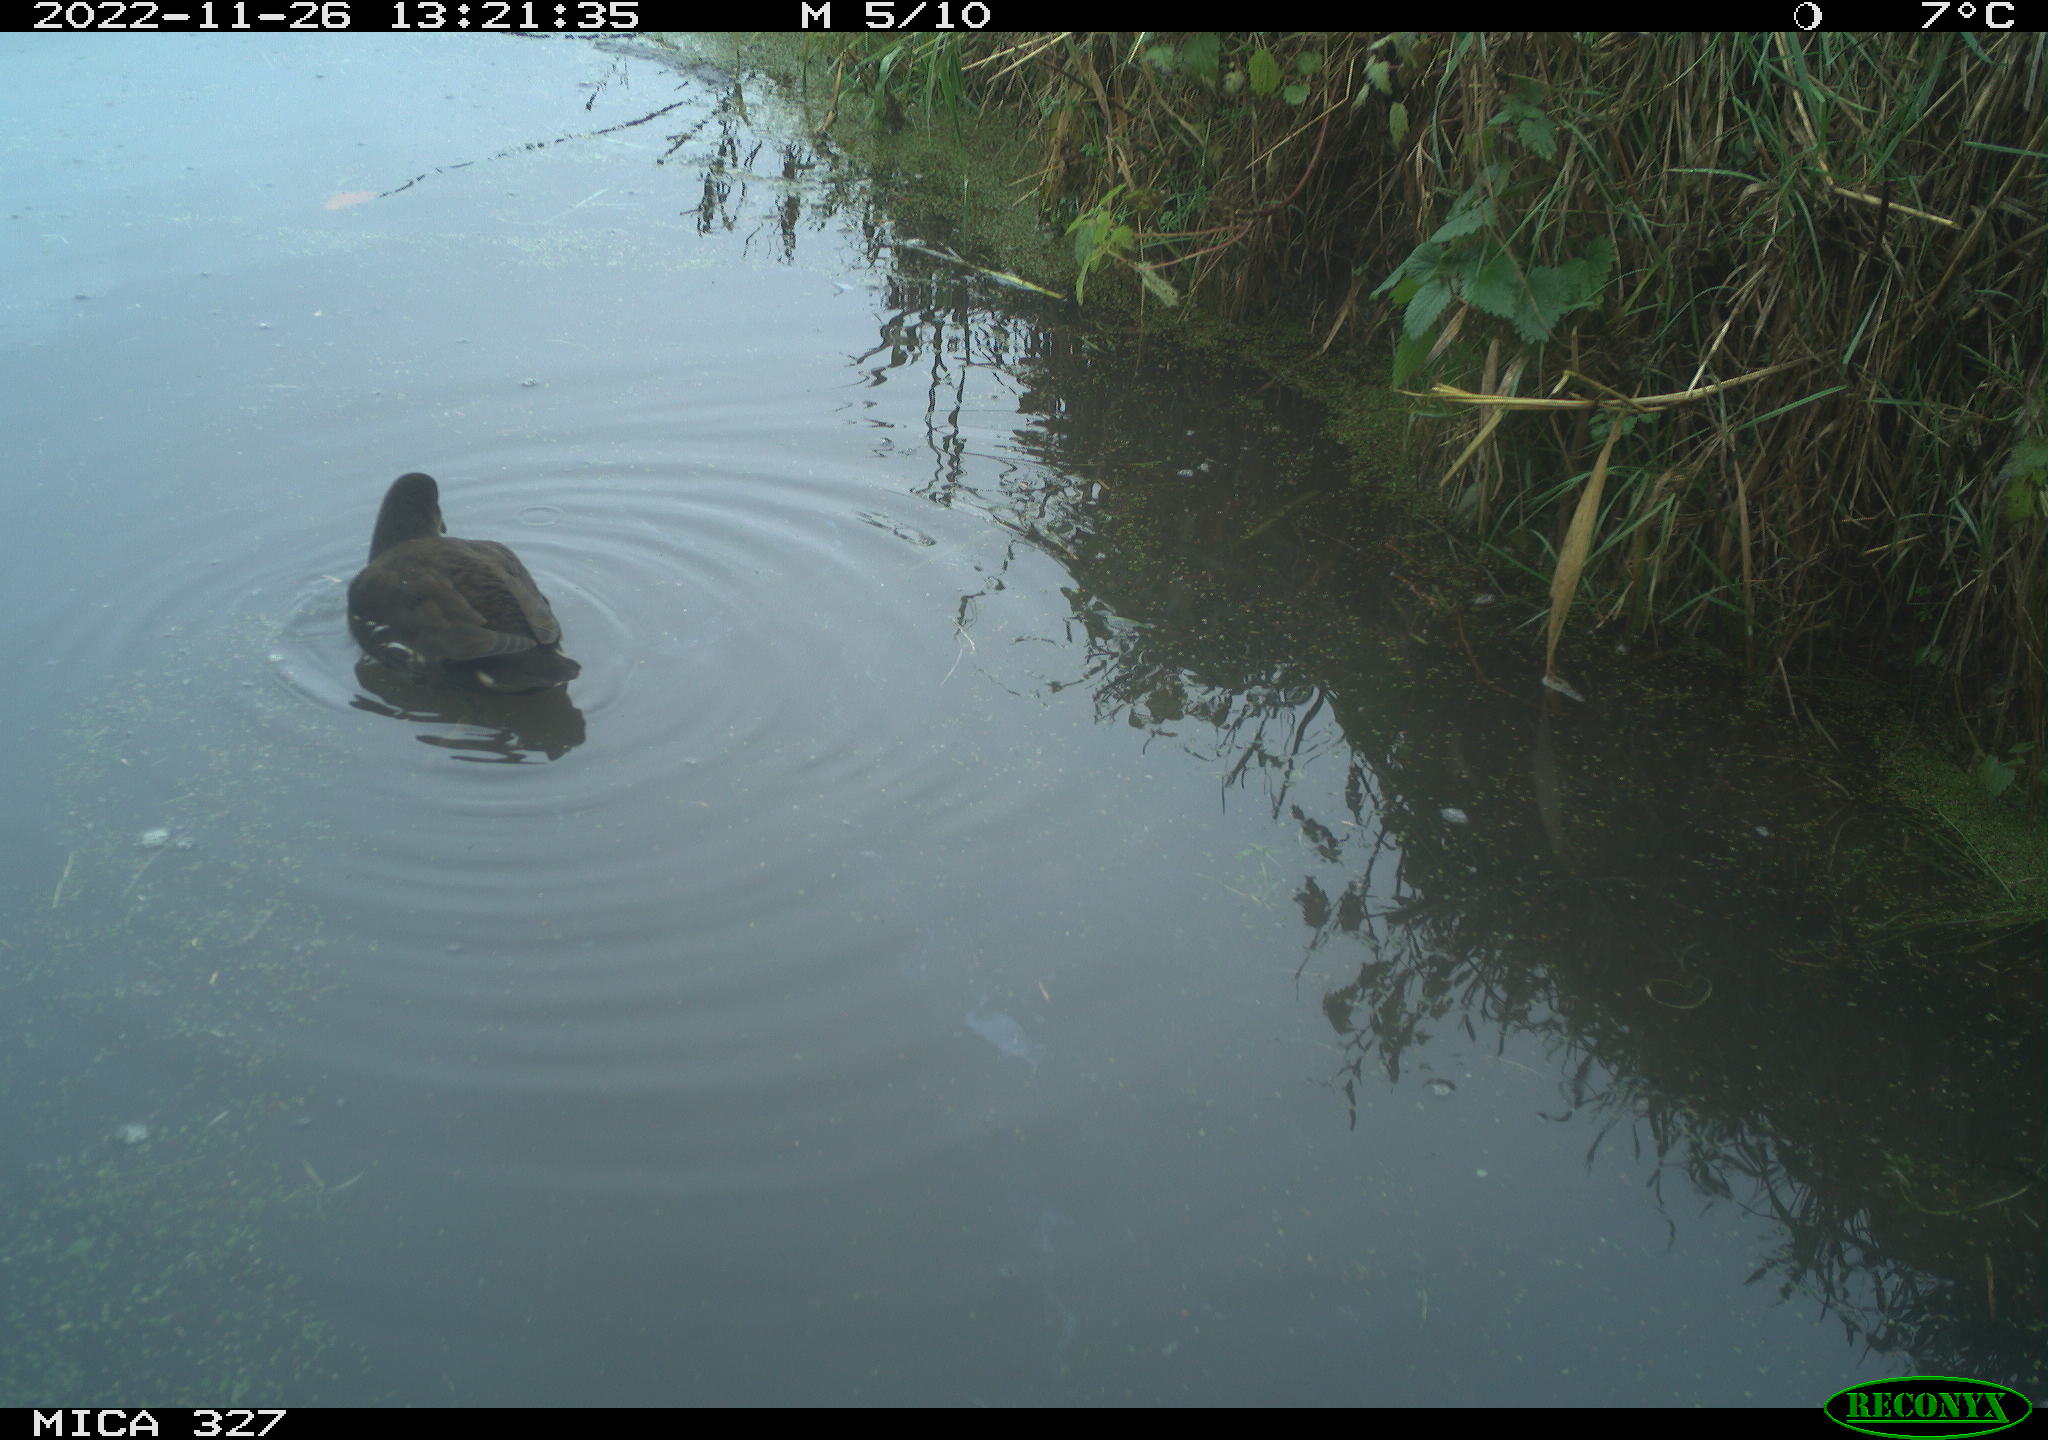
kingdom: Animalia
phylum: Chordata
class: Aves
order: Gruiformes
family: Rallidae
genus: Gallinula
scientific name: Gallinula chloropus
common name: Common moorhen
